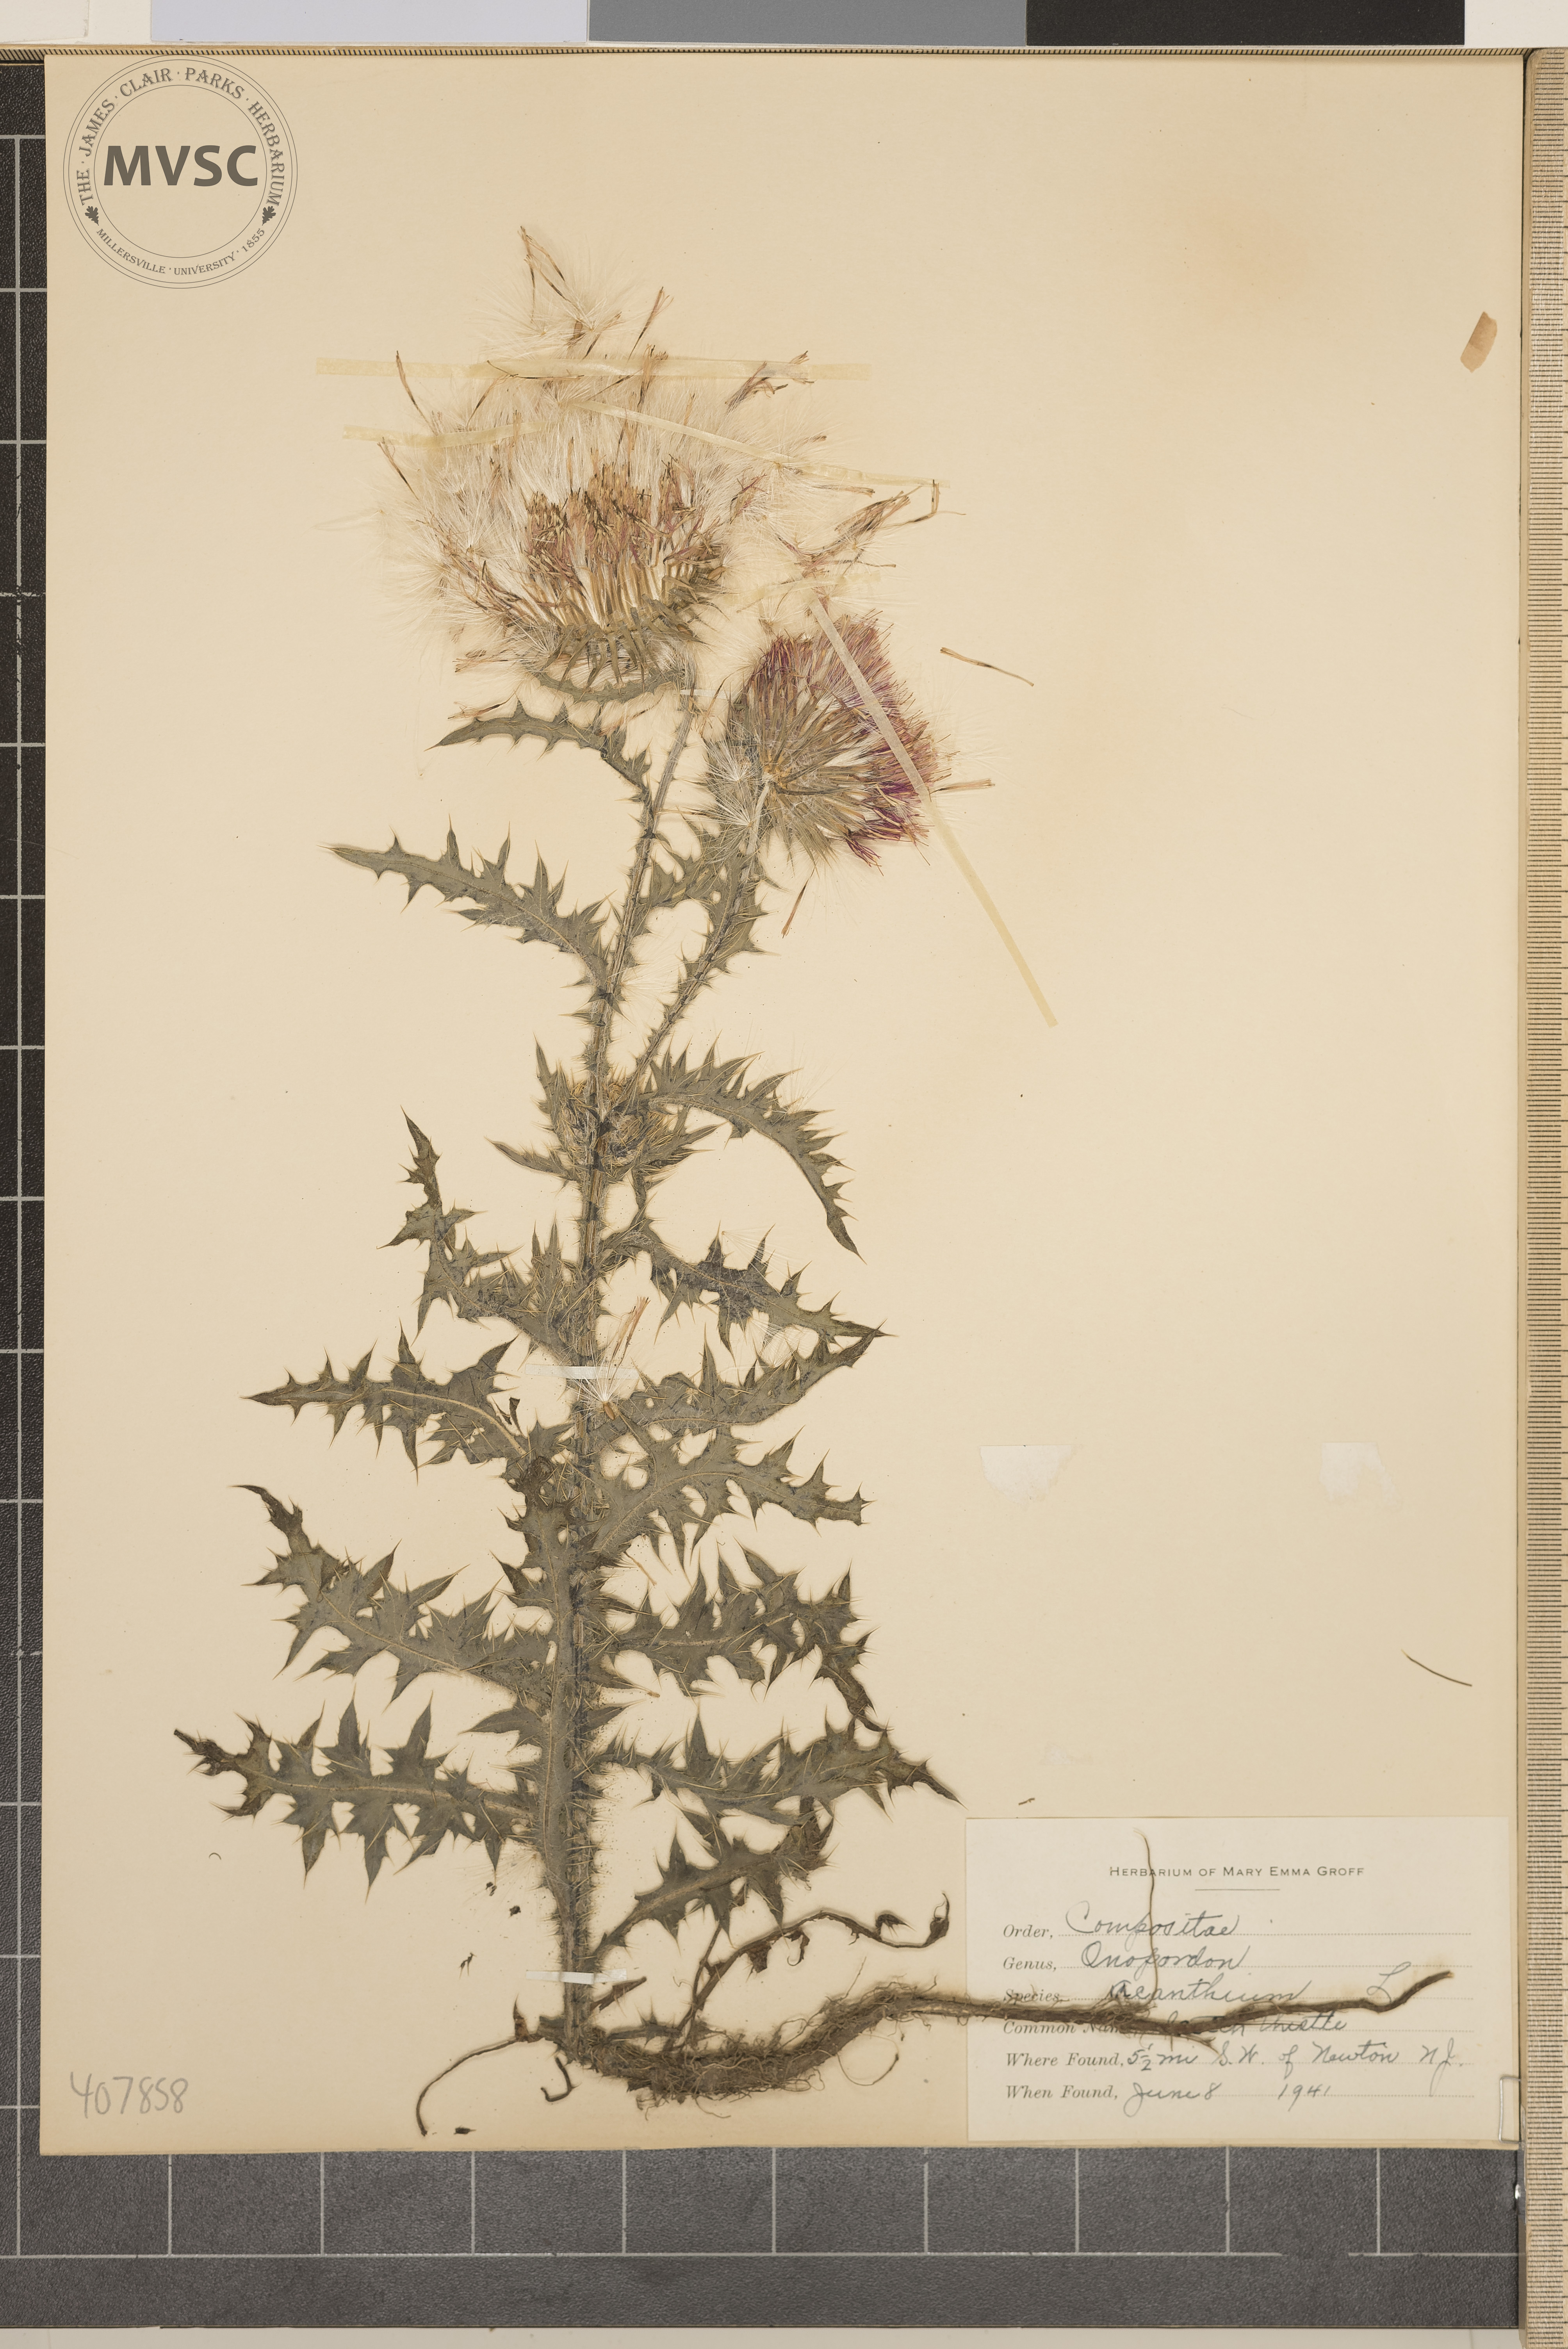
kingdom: Plantae
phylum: Tracheophyta
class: Magnoliopsida
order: Asterales
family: Asteraceae
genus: Onopordum
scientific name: Onopordum acanthium
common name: Scotch thistle
